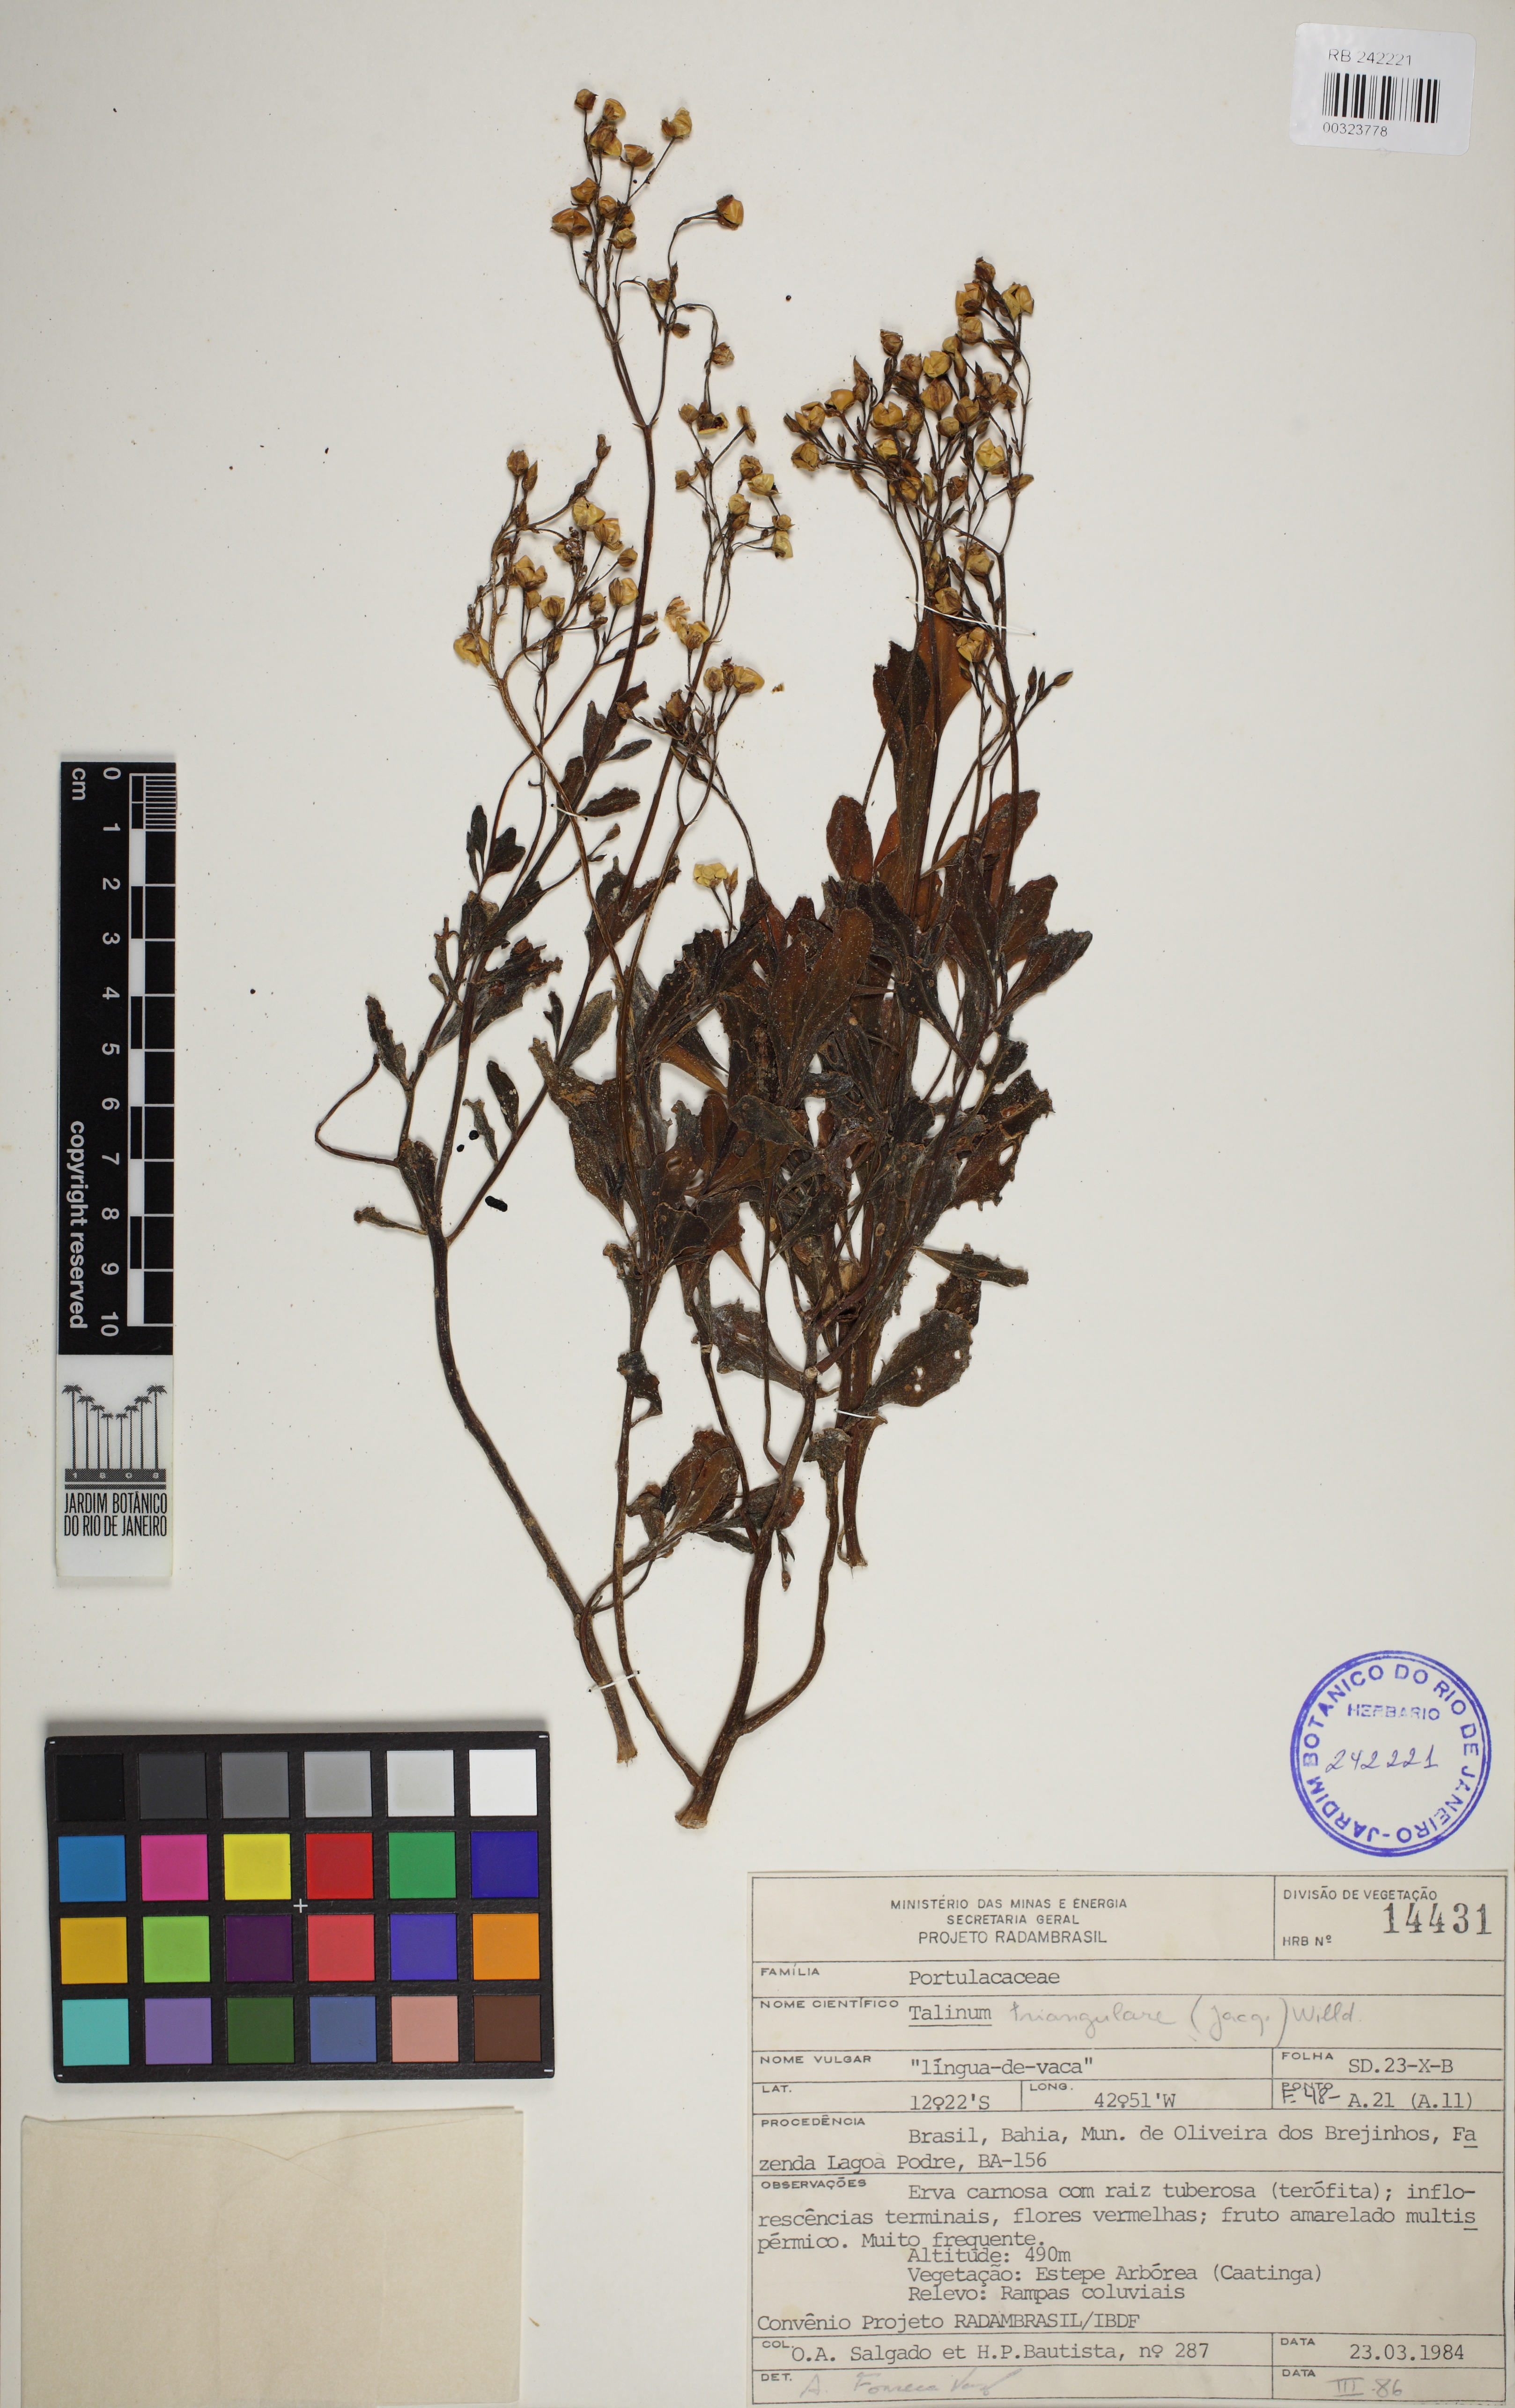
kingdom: Plantae
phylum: Tracheophyta
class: Magnoliopsida
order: Caryophyllales
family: Talinaceae
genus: Talinum
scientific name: Talinum fruticosum
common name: Verdolaga-francesa
